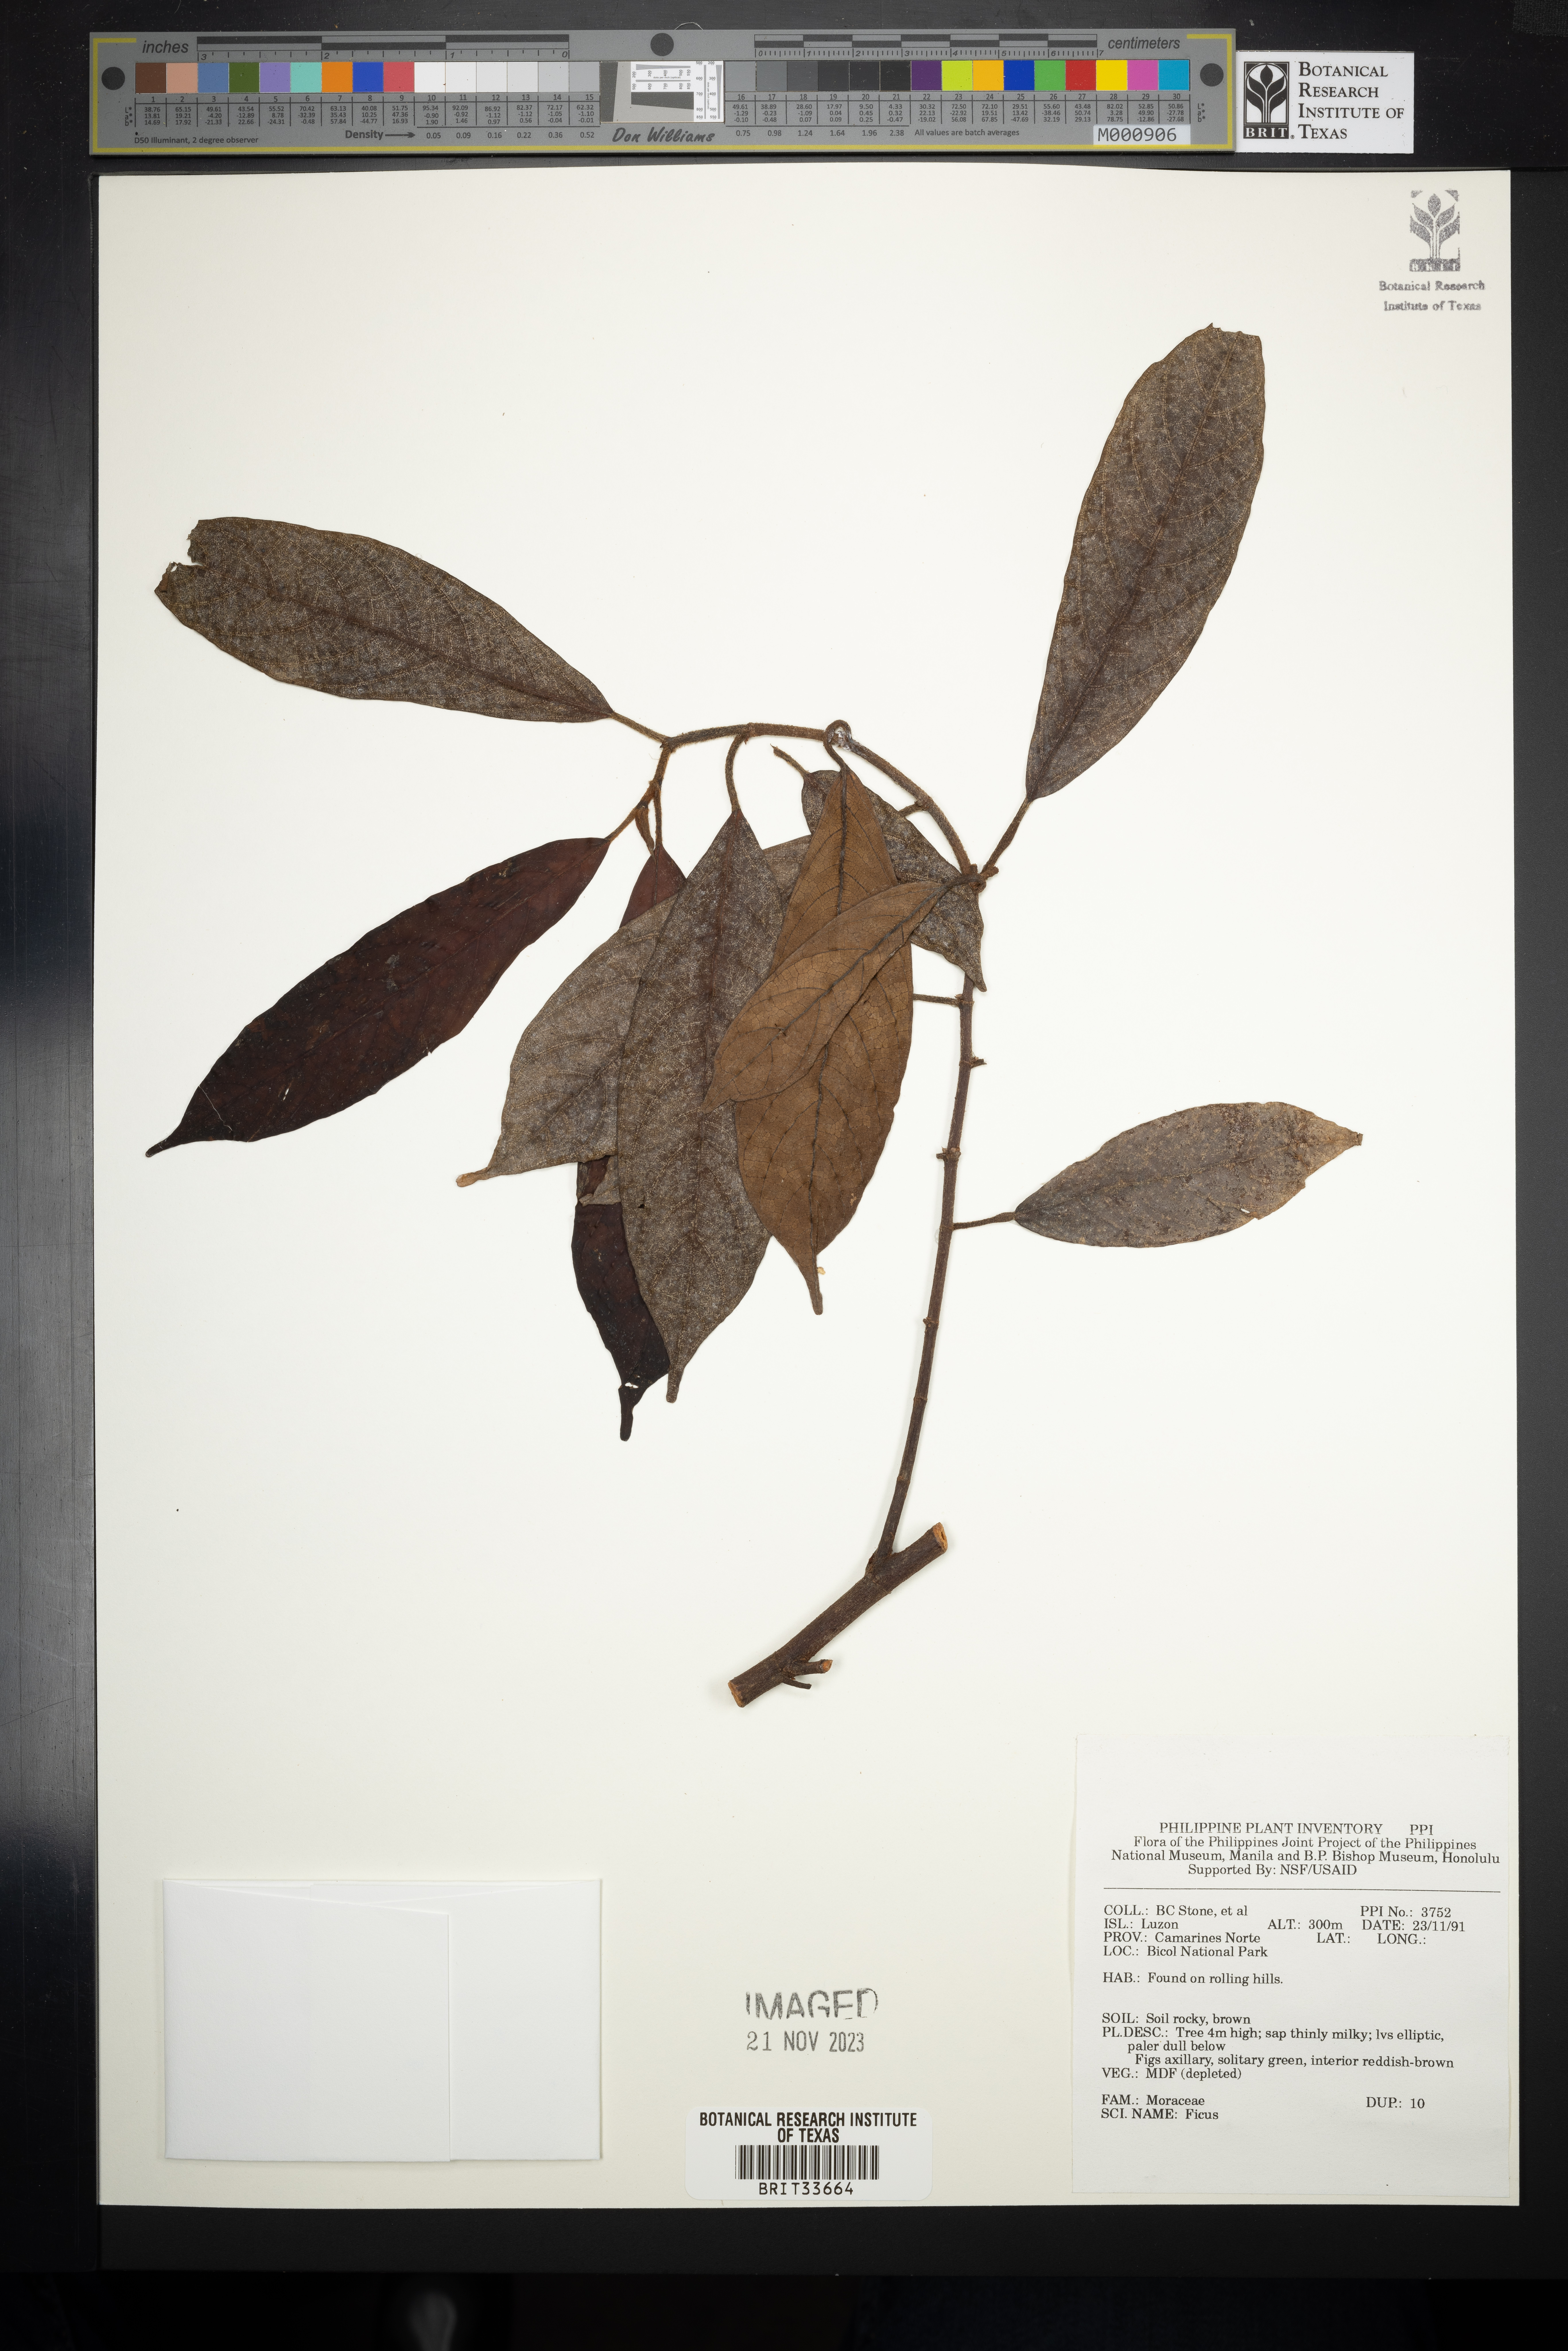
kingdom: Plantae
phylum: Tracheophyta
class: Magnoliopsida
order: Rosales
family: Moraceae
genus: Ficus
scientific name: Ficus
